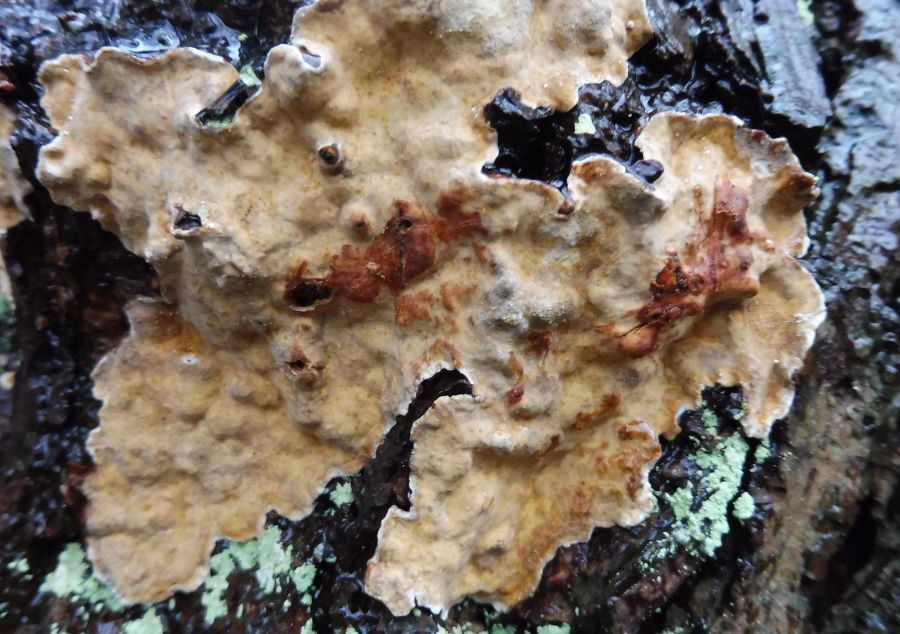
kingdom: Fungi
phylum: Basidiomycota
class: Agaricomycetes
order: Russulales
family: Stereaceae
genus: Stereum
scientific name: Stereum rugosum
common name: rynket lædersvamp
